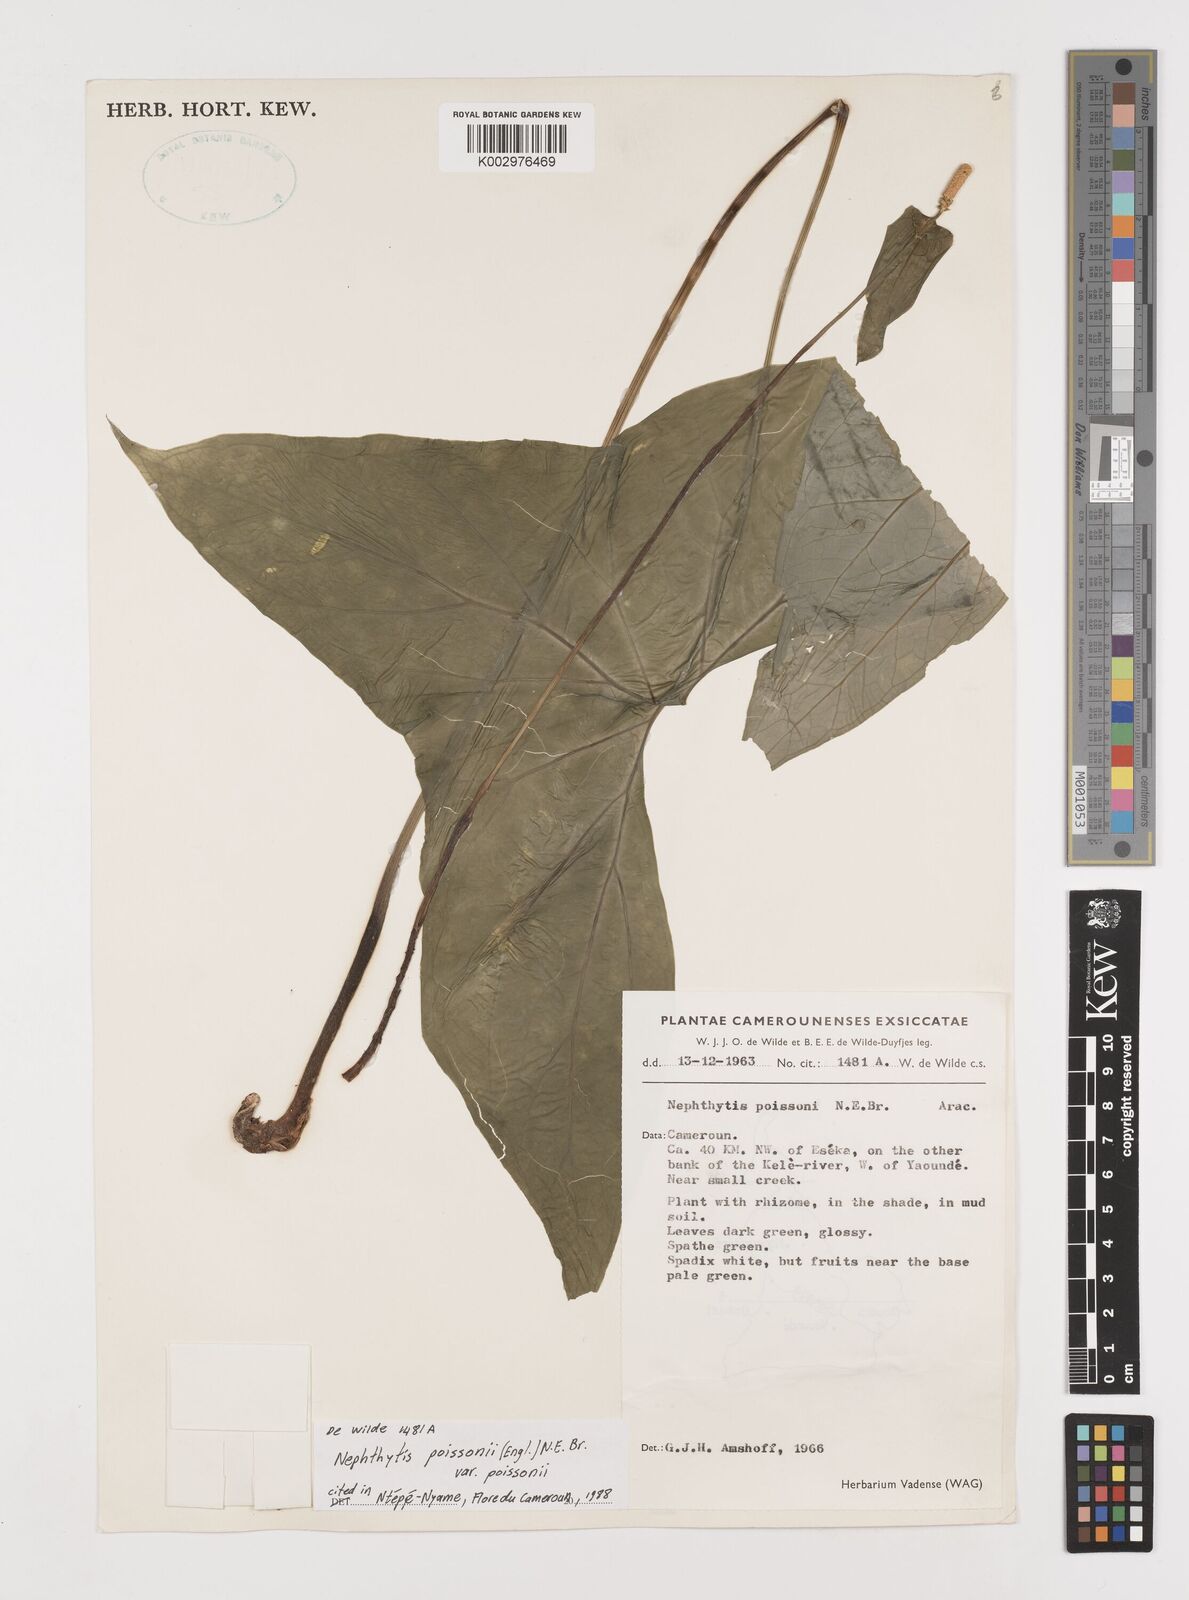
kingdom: Plantae
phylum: Tracheophyta
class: Liliopsida
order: Alismatales
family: Araceae
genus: Nephthytis
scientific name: Nephthytis poissonii
